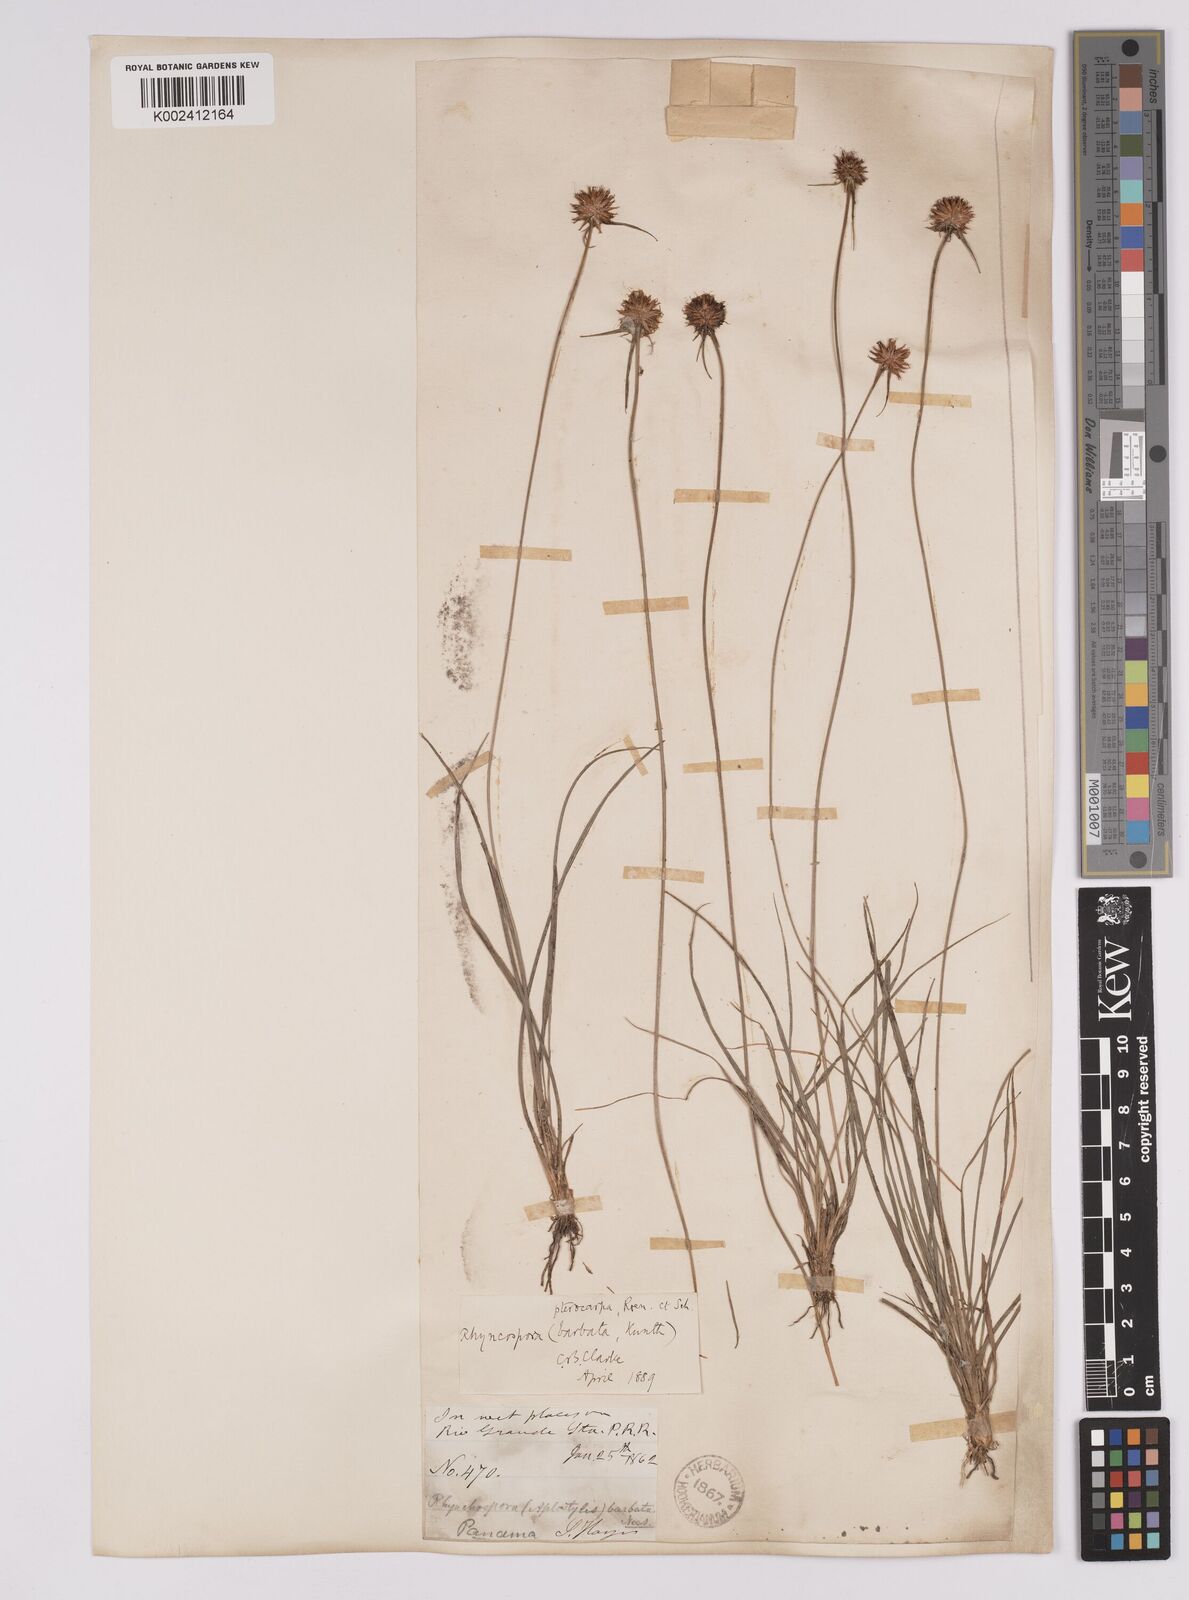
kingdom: Plantae
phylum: Tracheophyta
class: Liliopsida
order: Poales
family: Cyperaceae
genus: Rhynchospora
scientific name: Rhynchospora barbata
